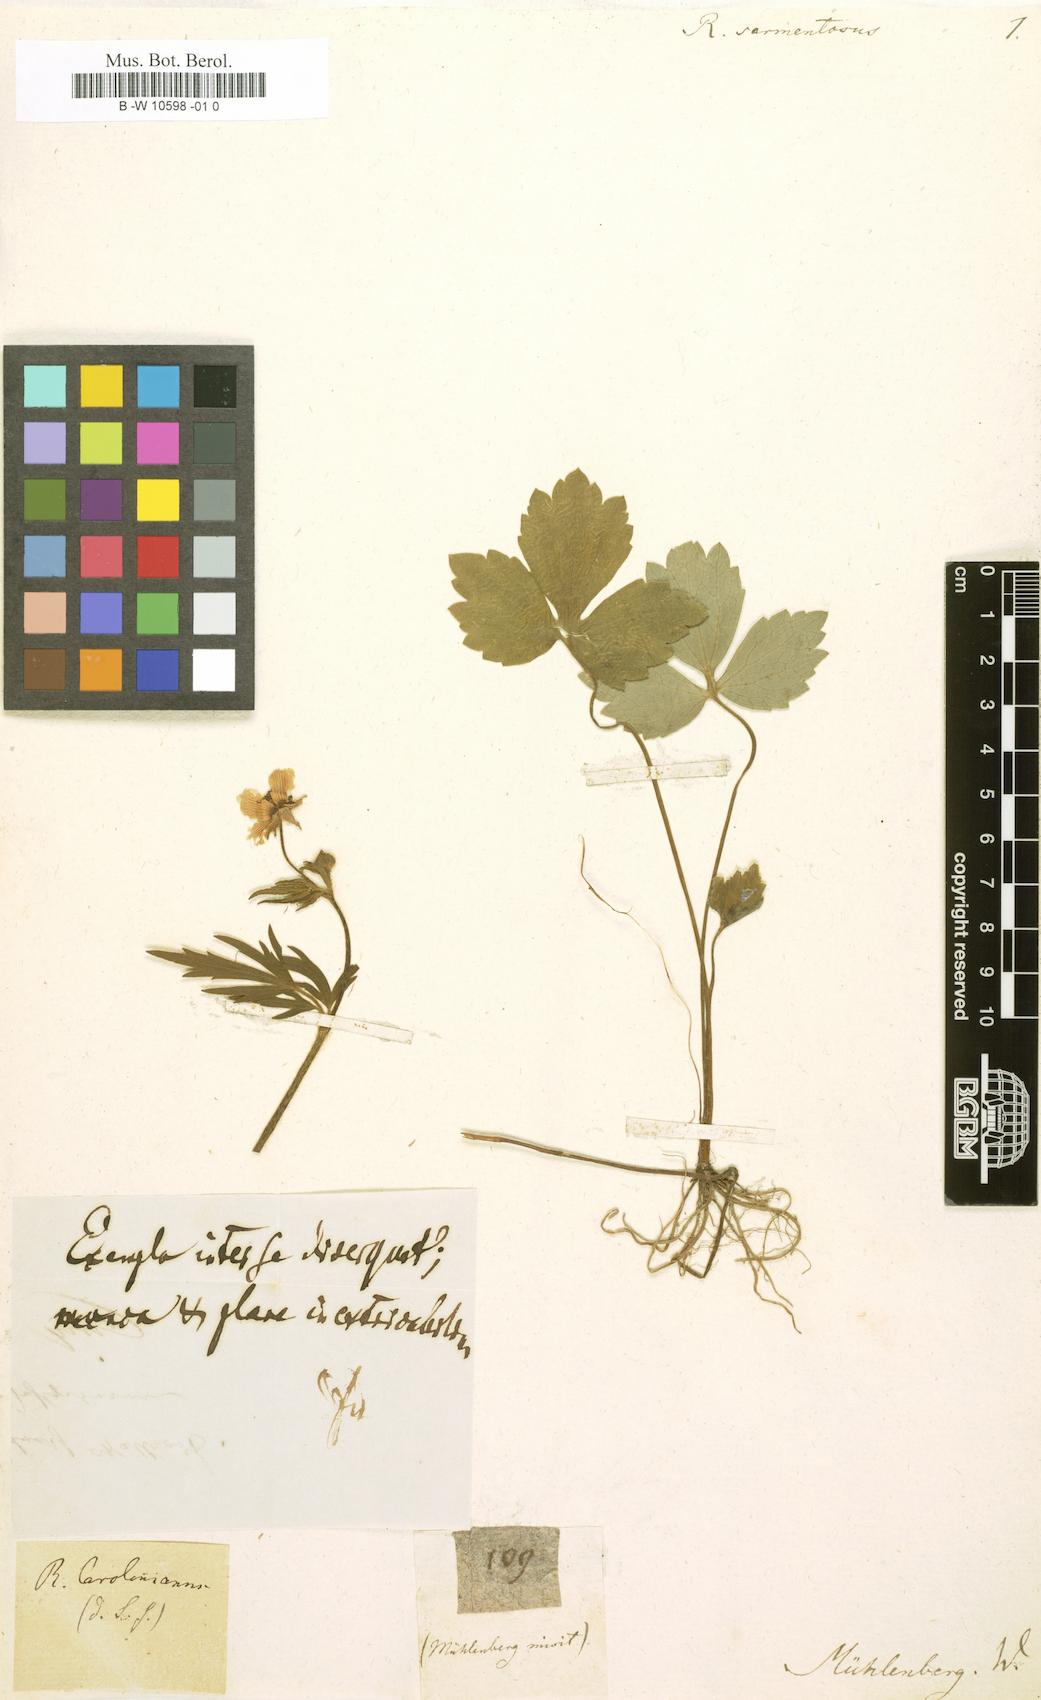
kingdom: Plantae
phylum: Tracheophyta
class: Magnoliopsida
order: Ranunculales
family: Ranunculaceae
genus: Halerpestes
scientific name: Halerpestes sarmentosus
